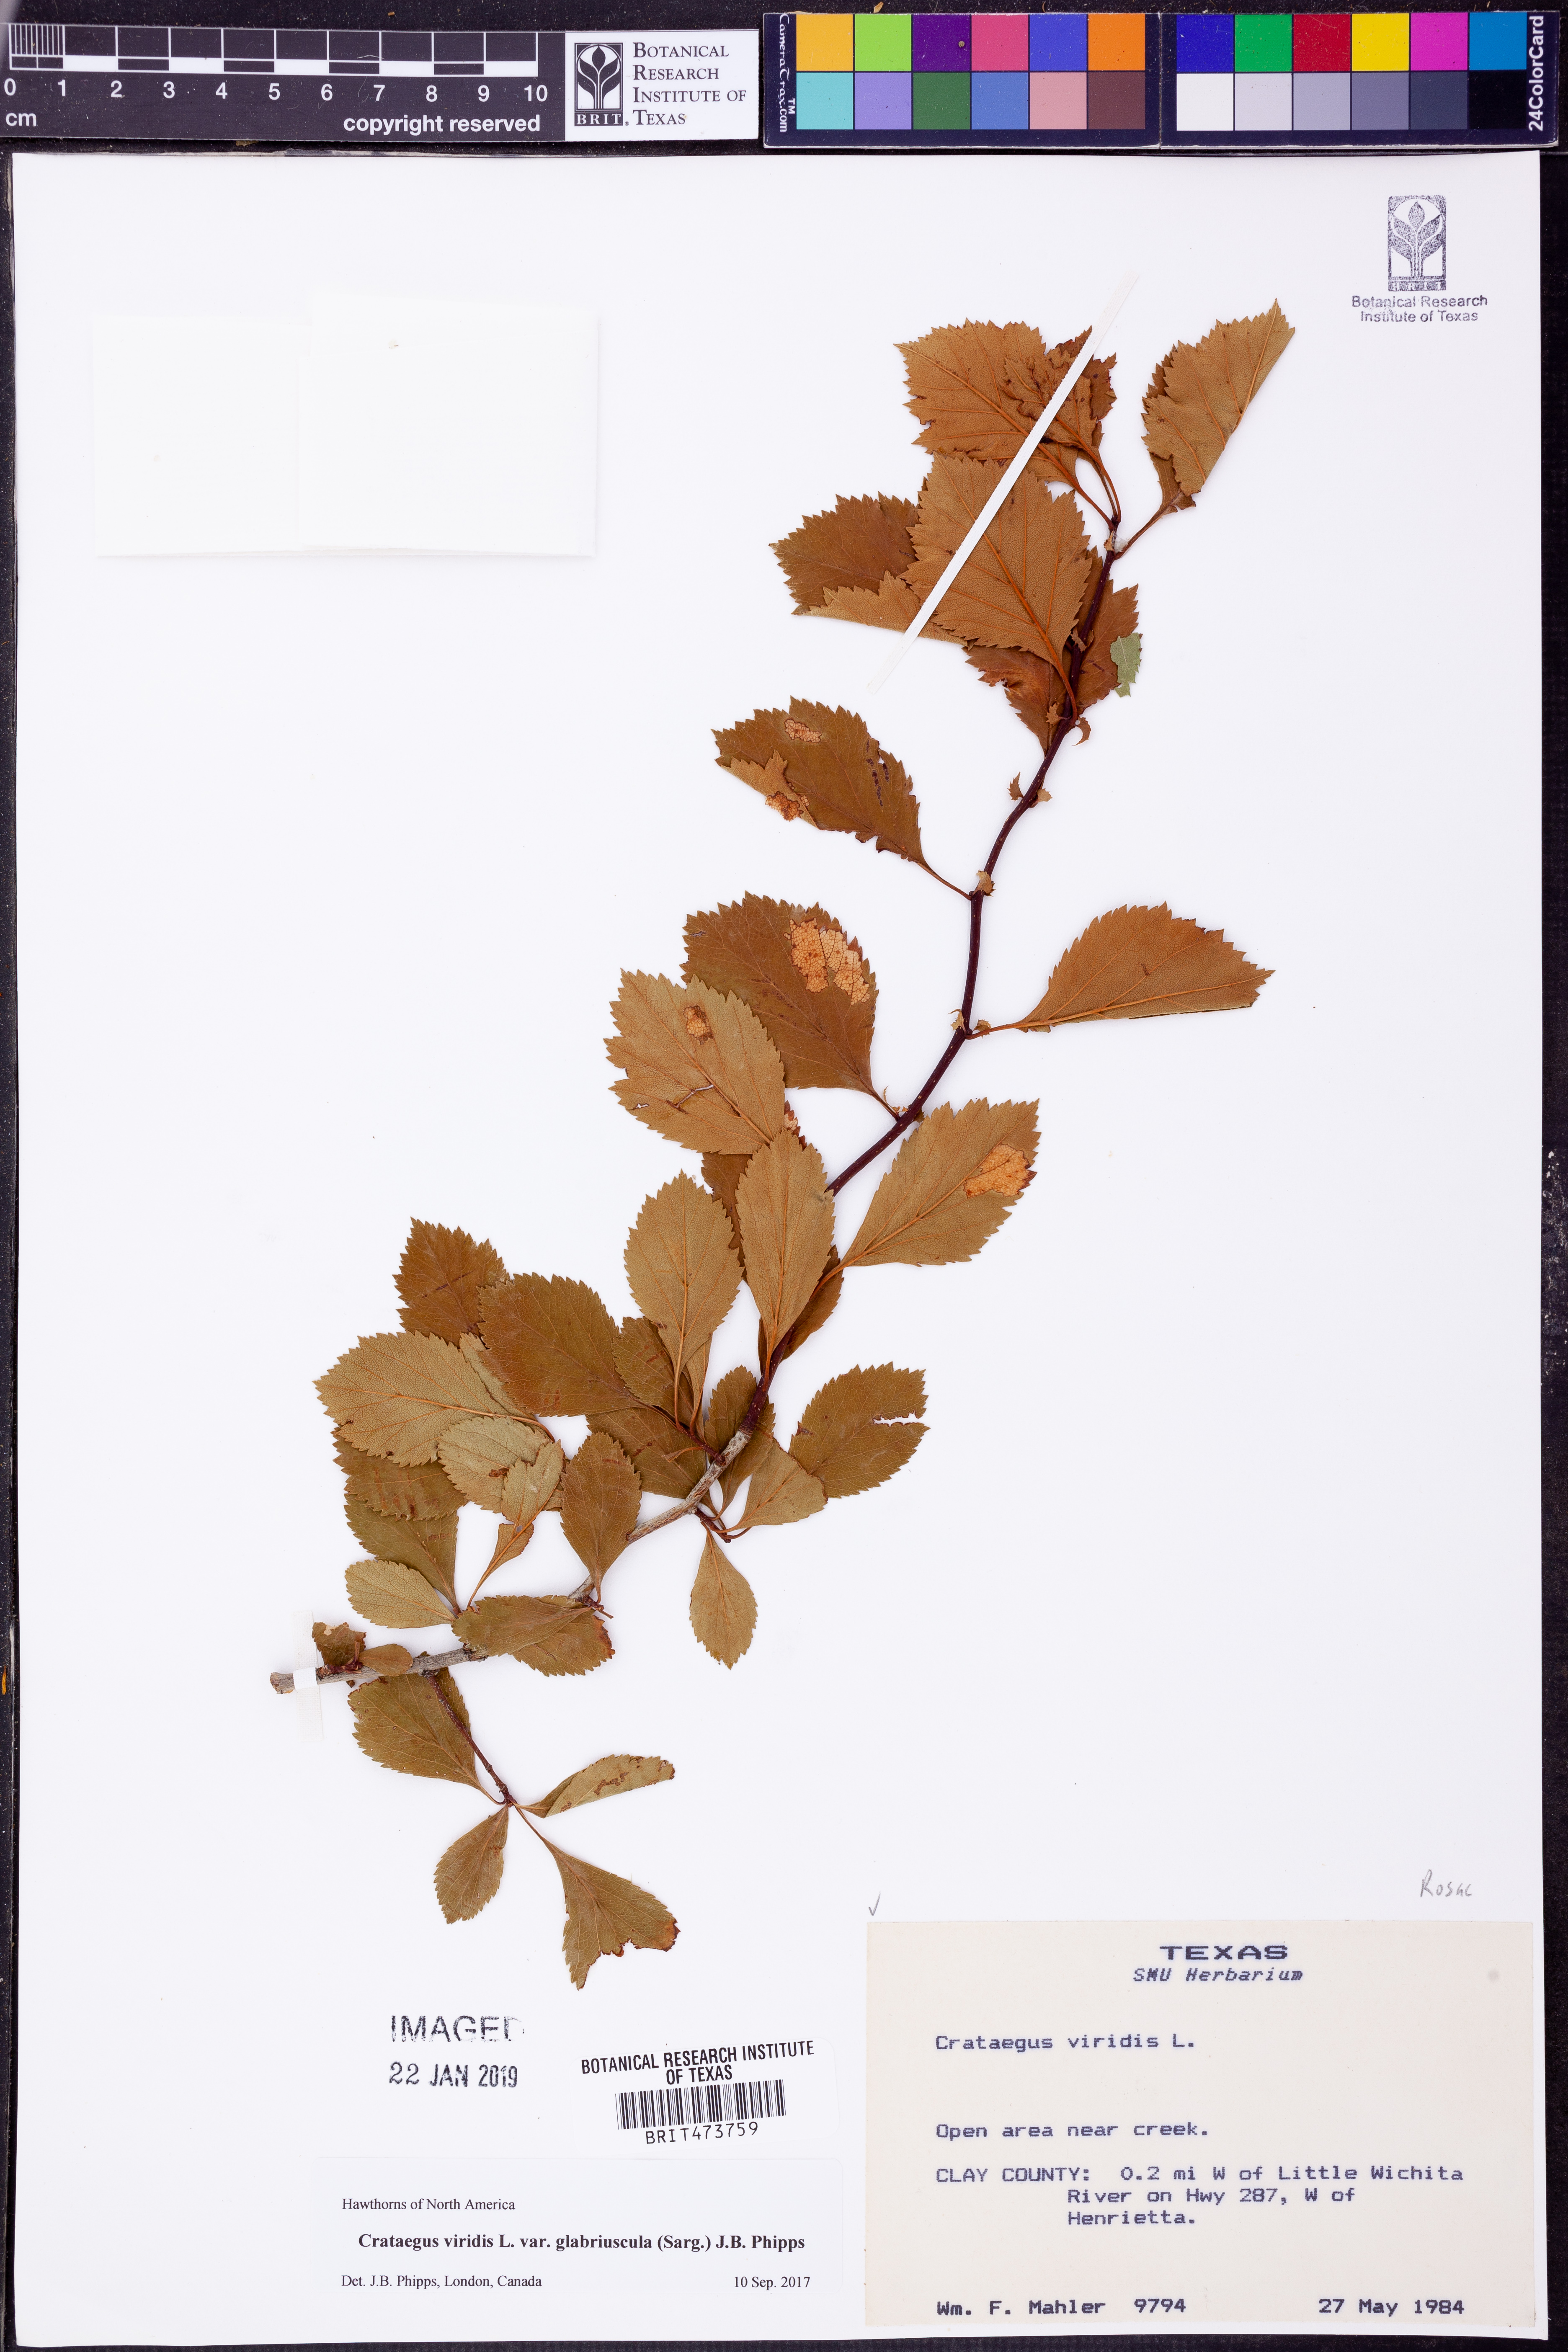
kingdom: Plantae
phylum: Tracheophyta
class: Magnoliopsida
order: Rosales
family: Rosaceae
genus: Crataegus
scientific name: Crataegus viridis
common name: Southernthorn
